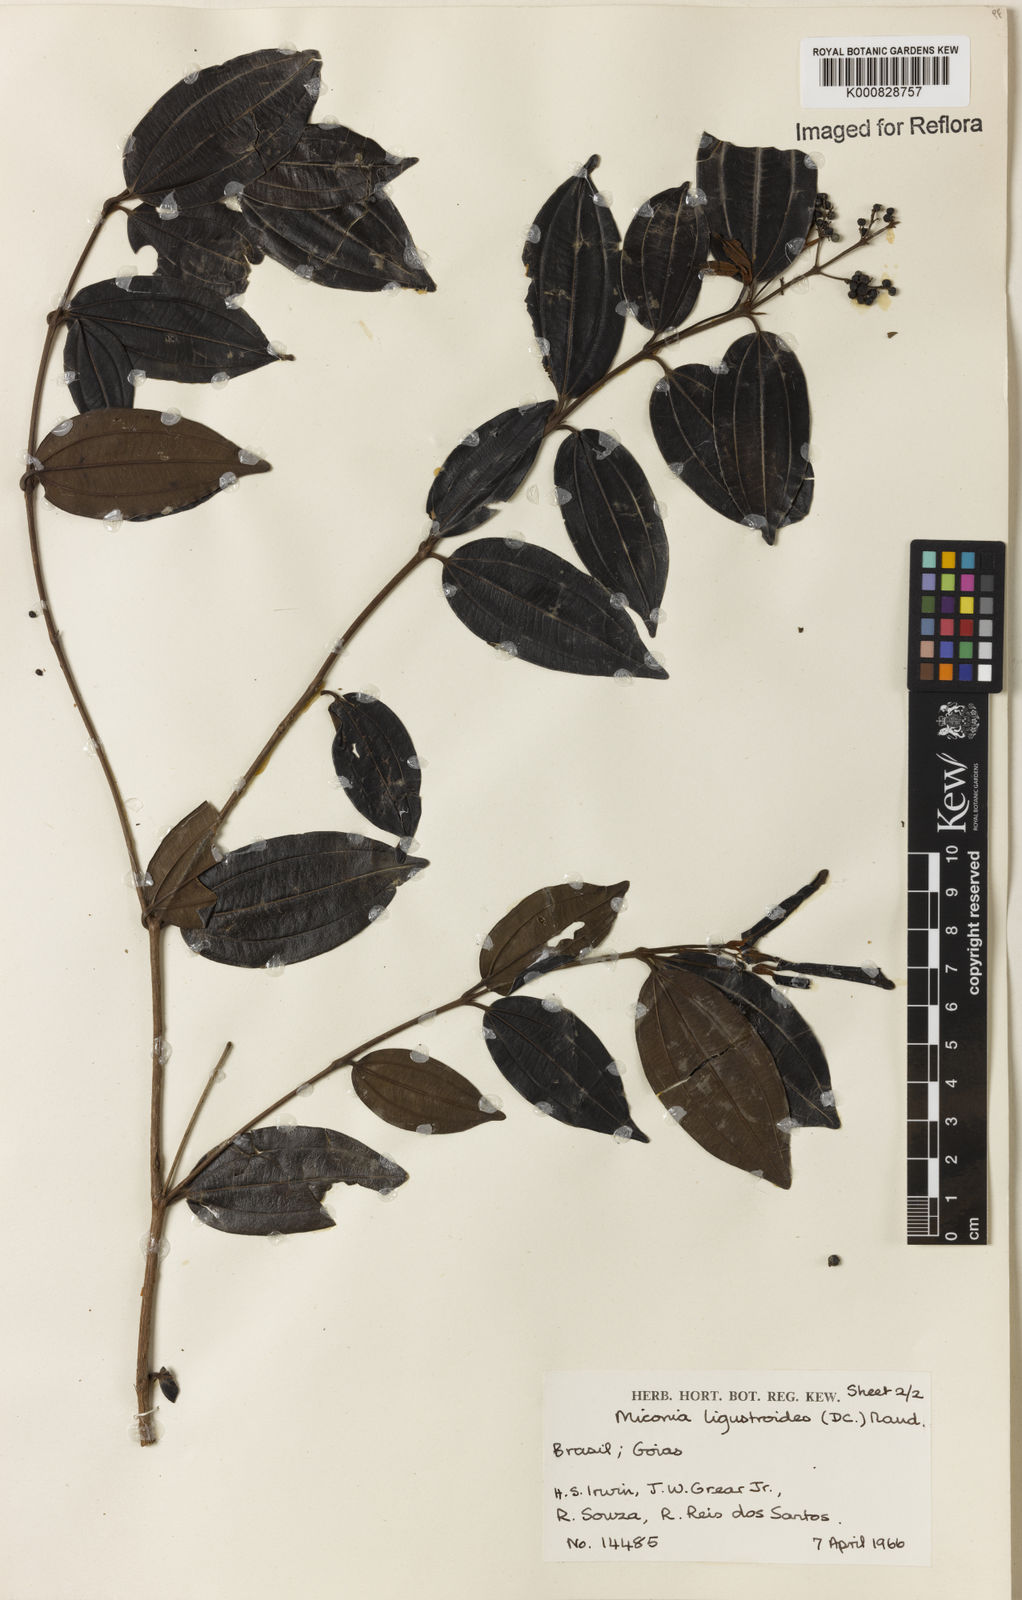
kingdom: Plantae
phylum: Tracheophyta
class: Magnoliopsida
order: Myrtales
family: Melastomataceae
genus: Miconia
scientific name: Miconia ligustroides
